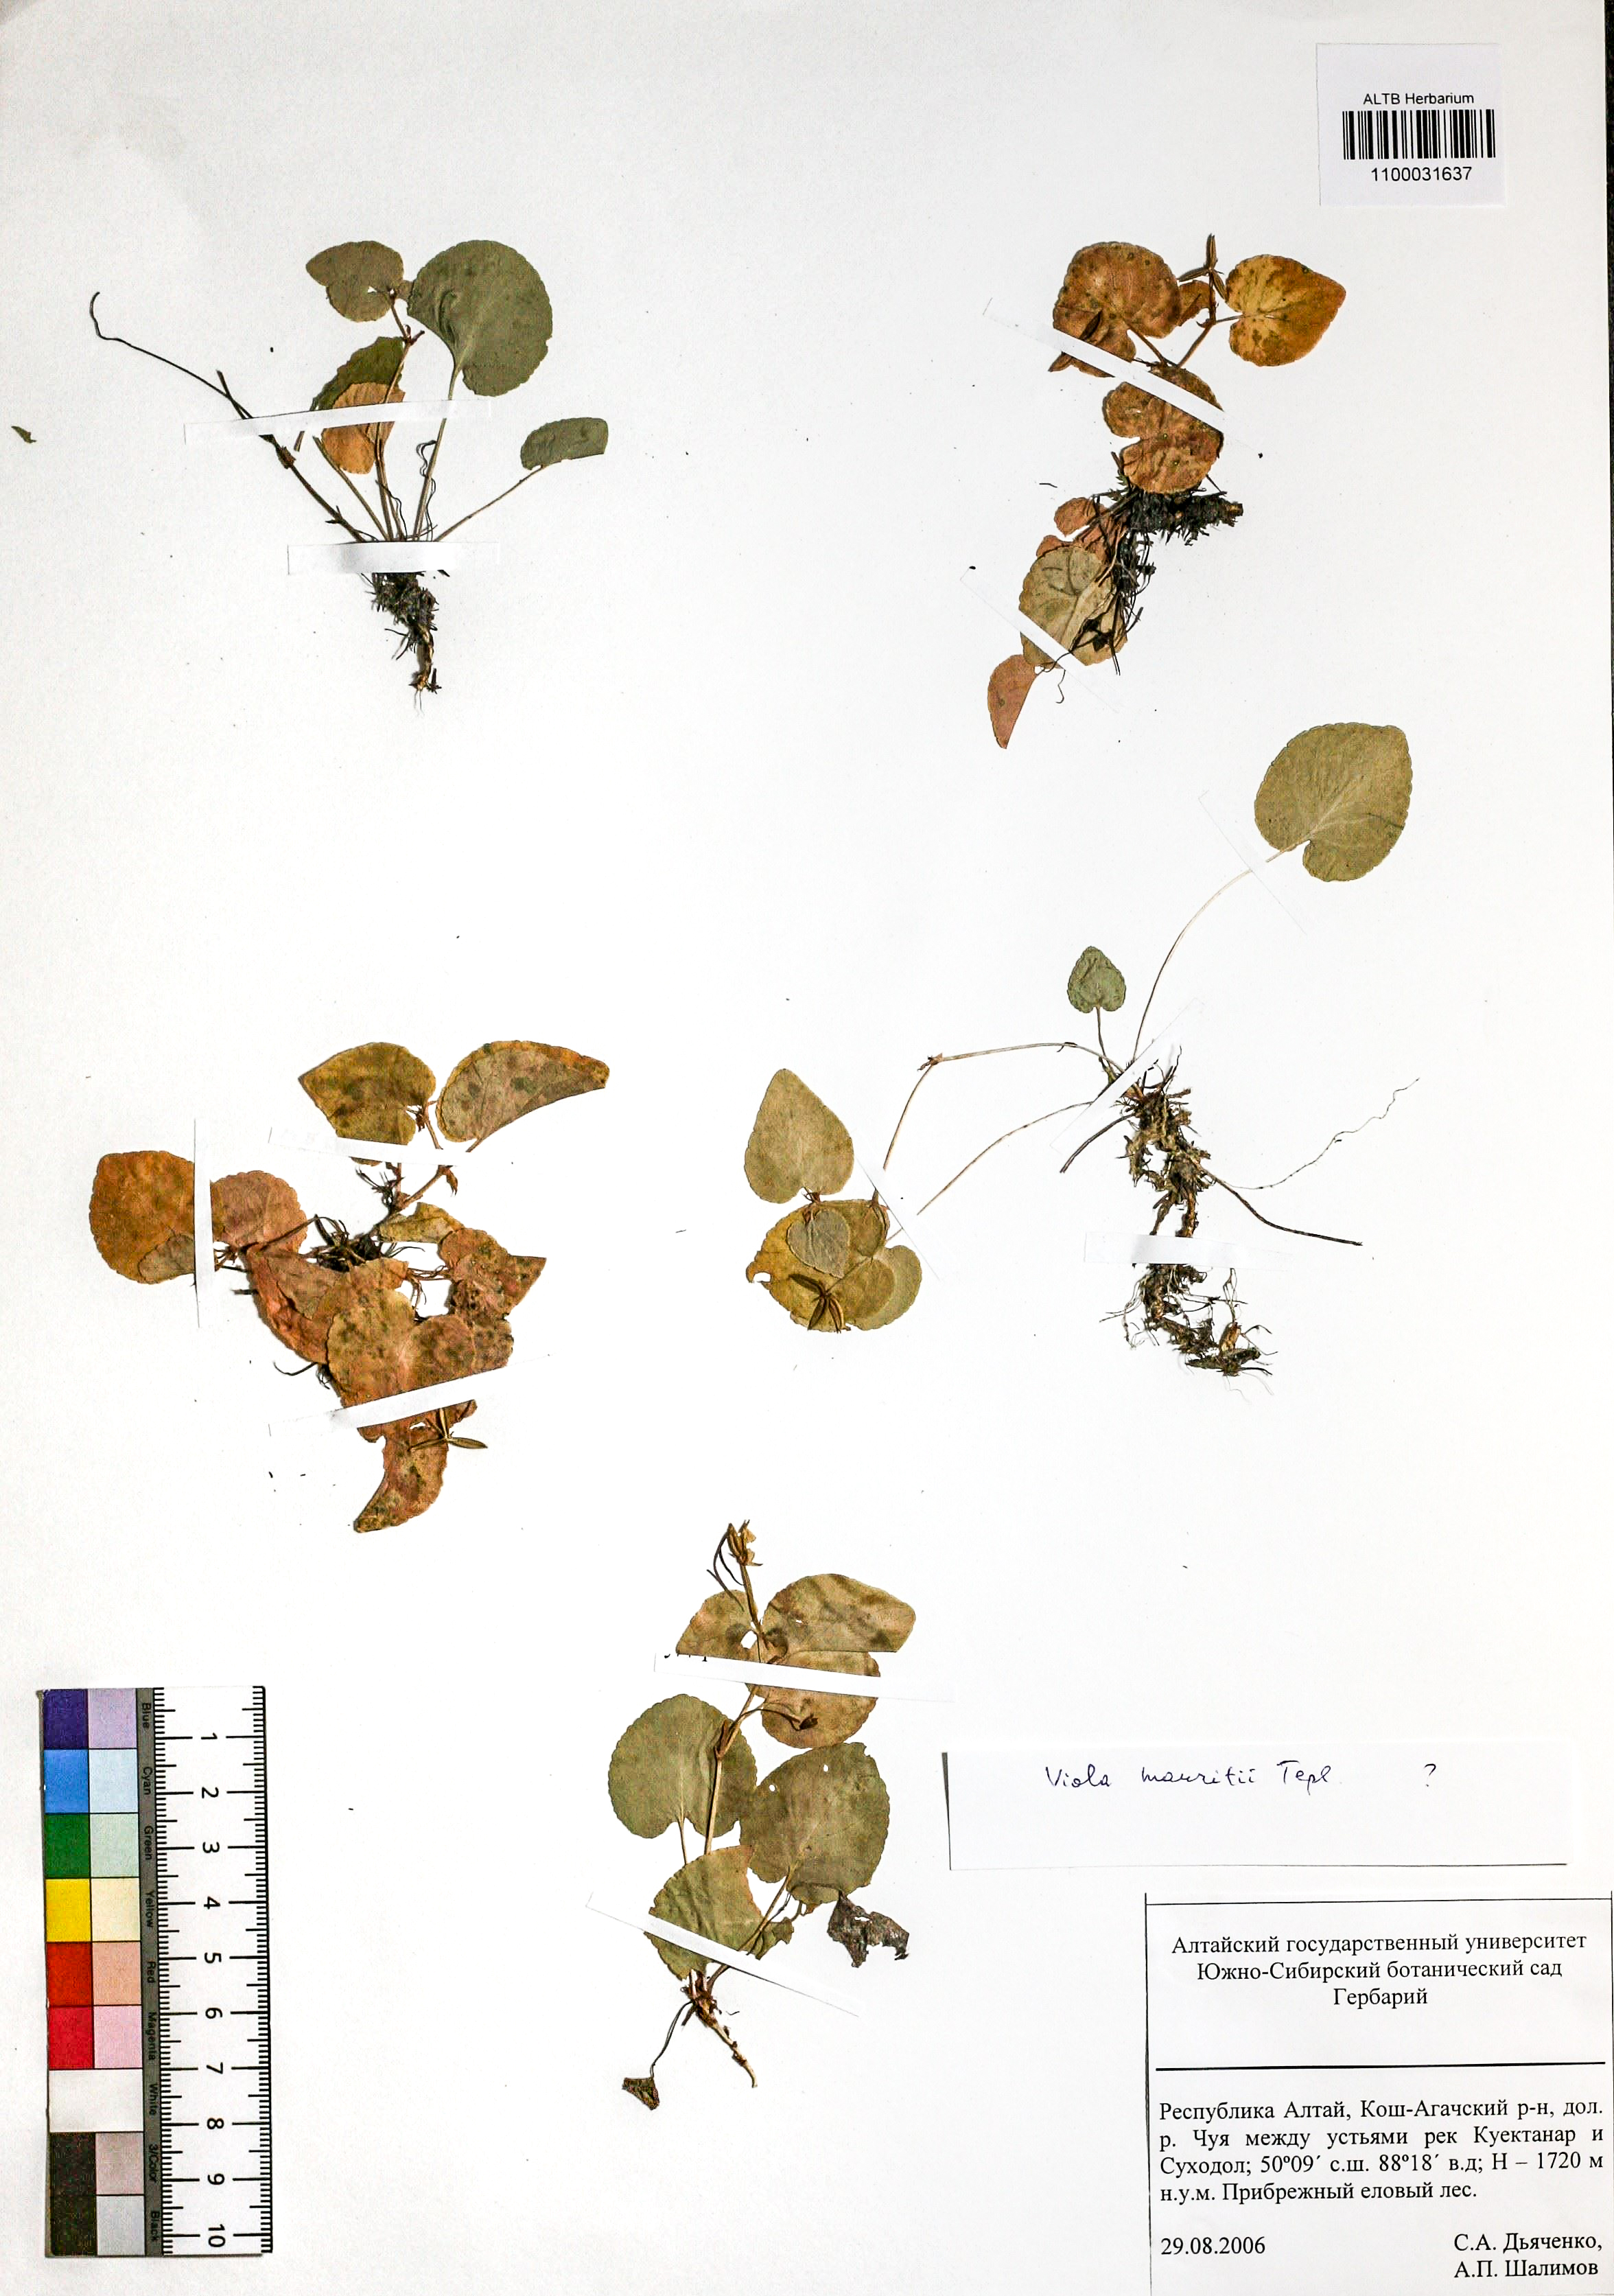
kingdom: Plantae
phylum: Tracheophyta
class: Magnoliopsida
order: Malpighiales
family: Violaceae
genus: Viola
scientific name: Viola mauritii
